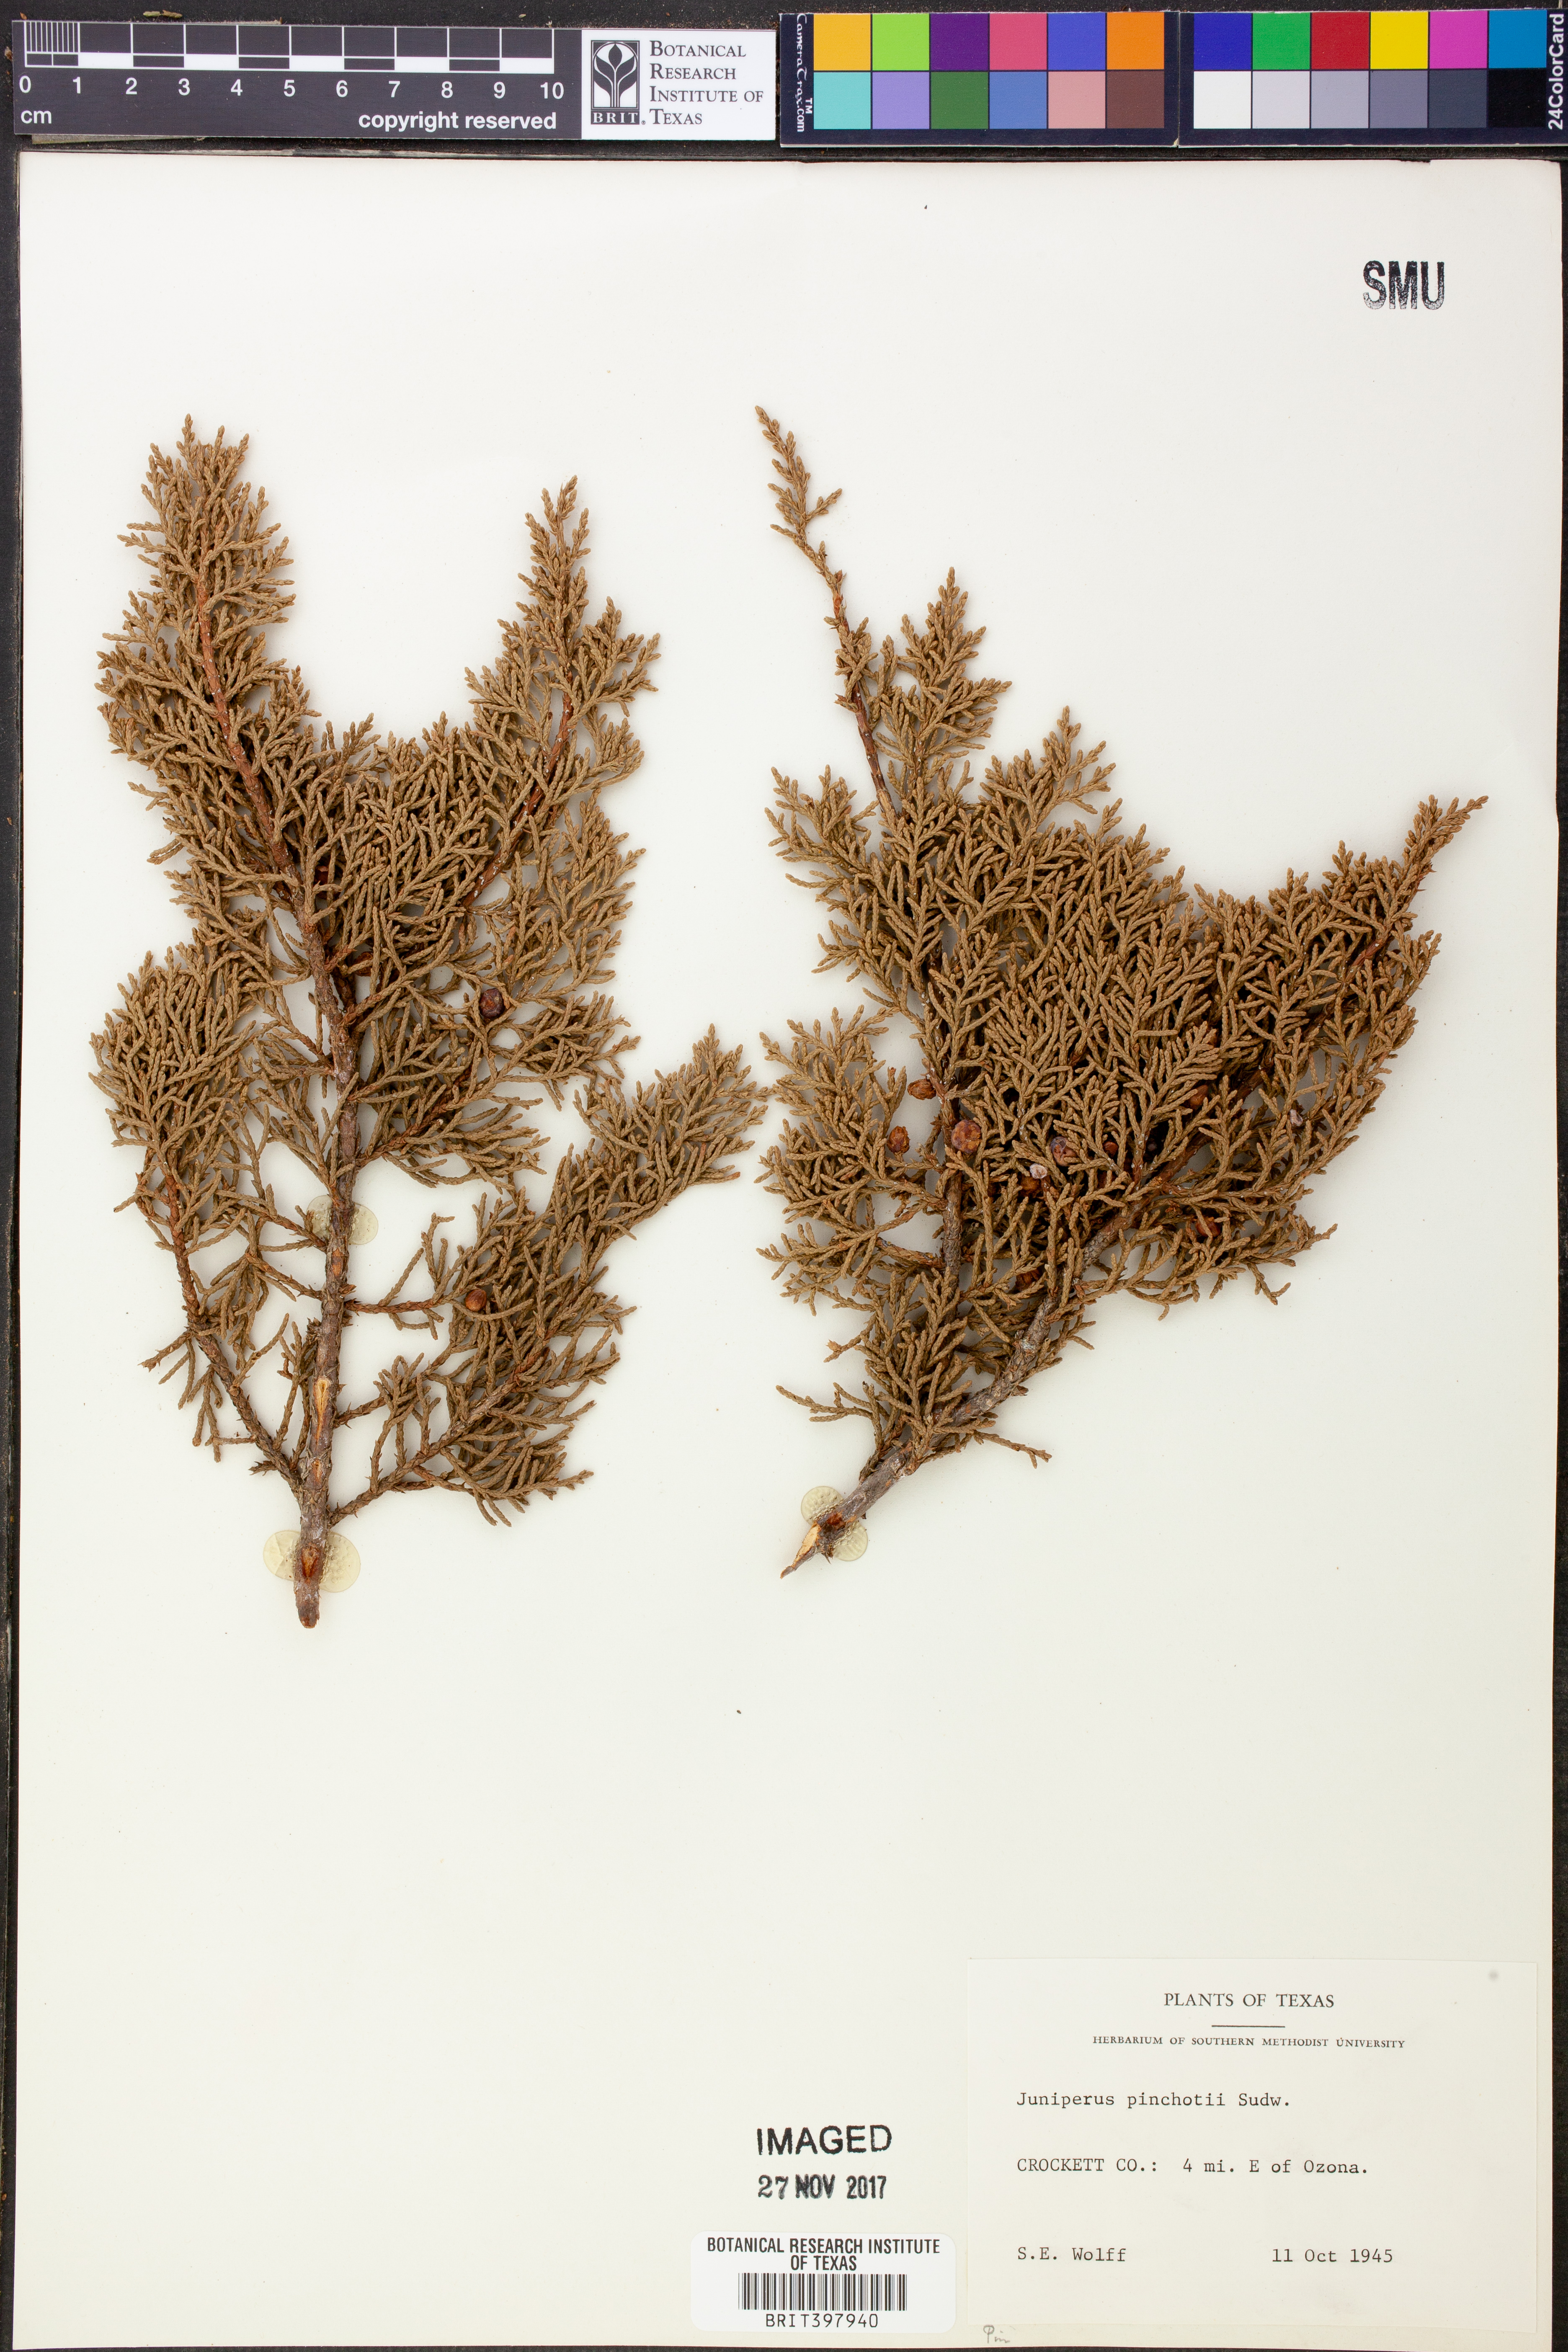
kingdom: Plantae
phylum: Tracheophyta
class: Pinopsida
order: Pinales
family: Cupressaceae
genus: Juniperus
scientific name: Juniperus pinchotii
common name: Pinchot juniper
